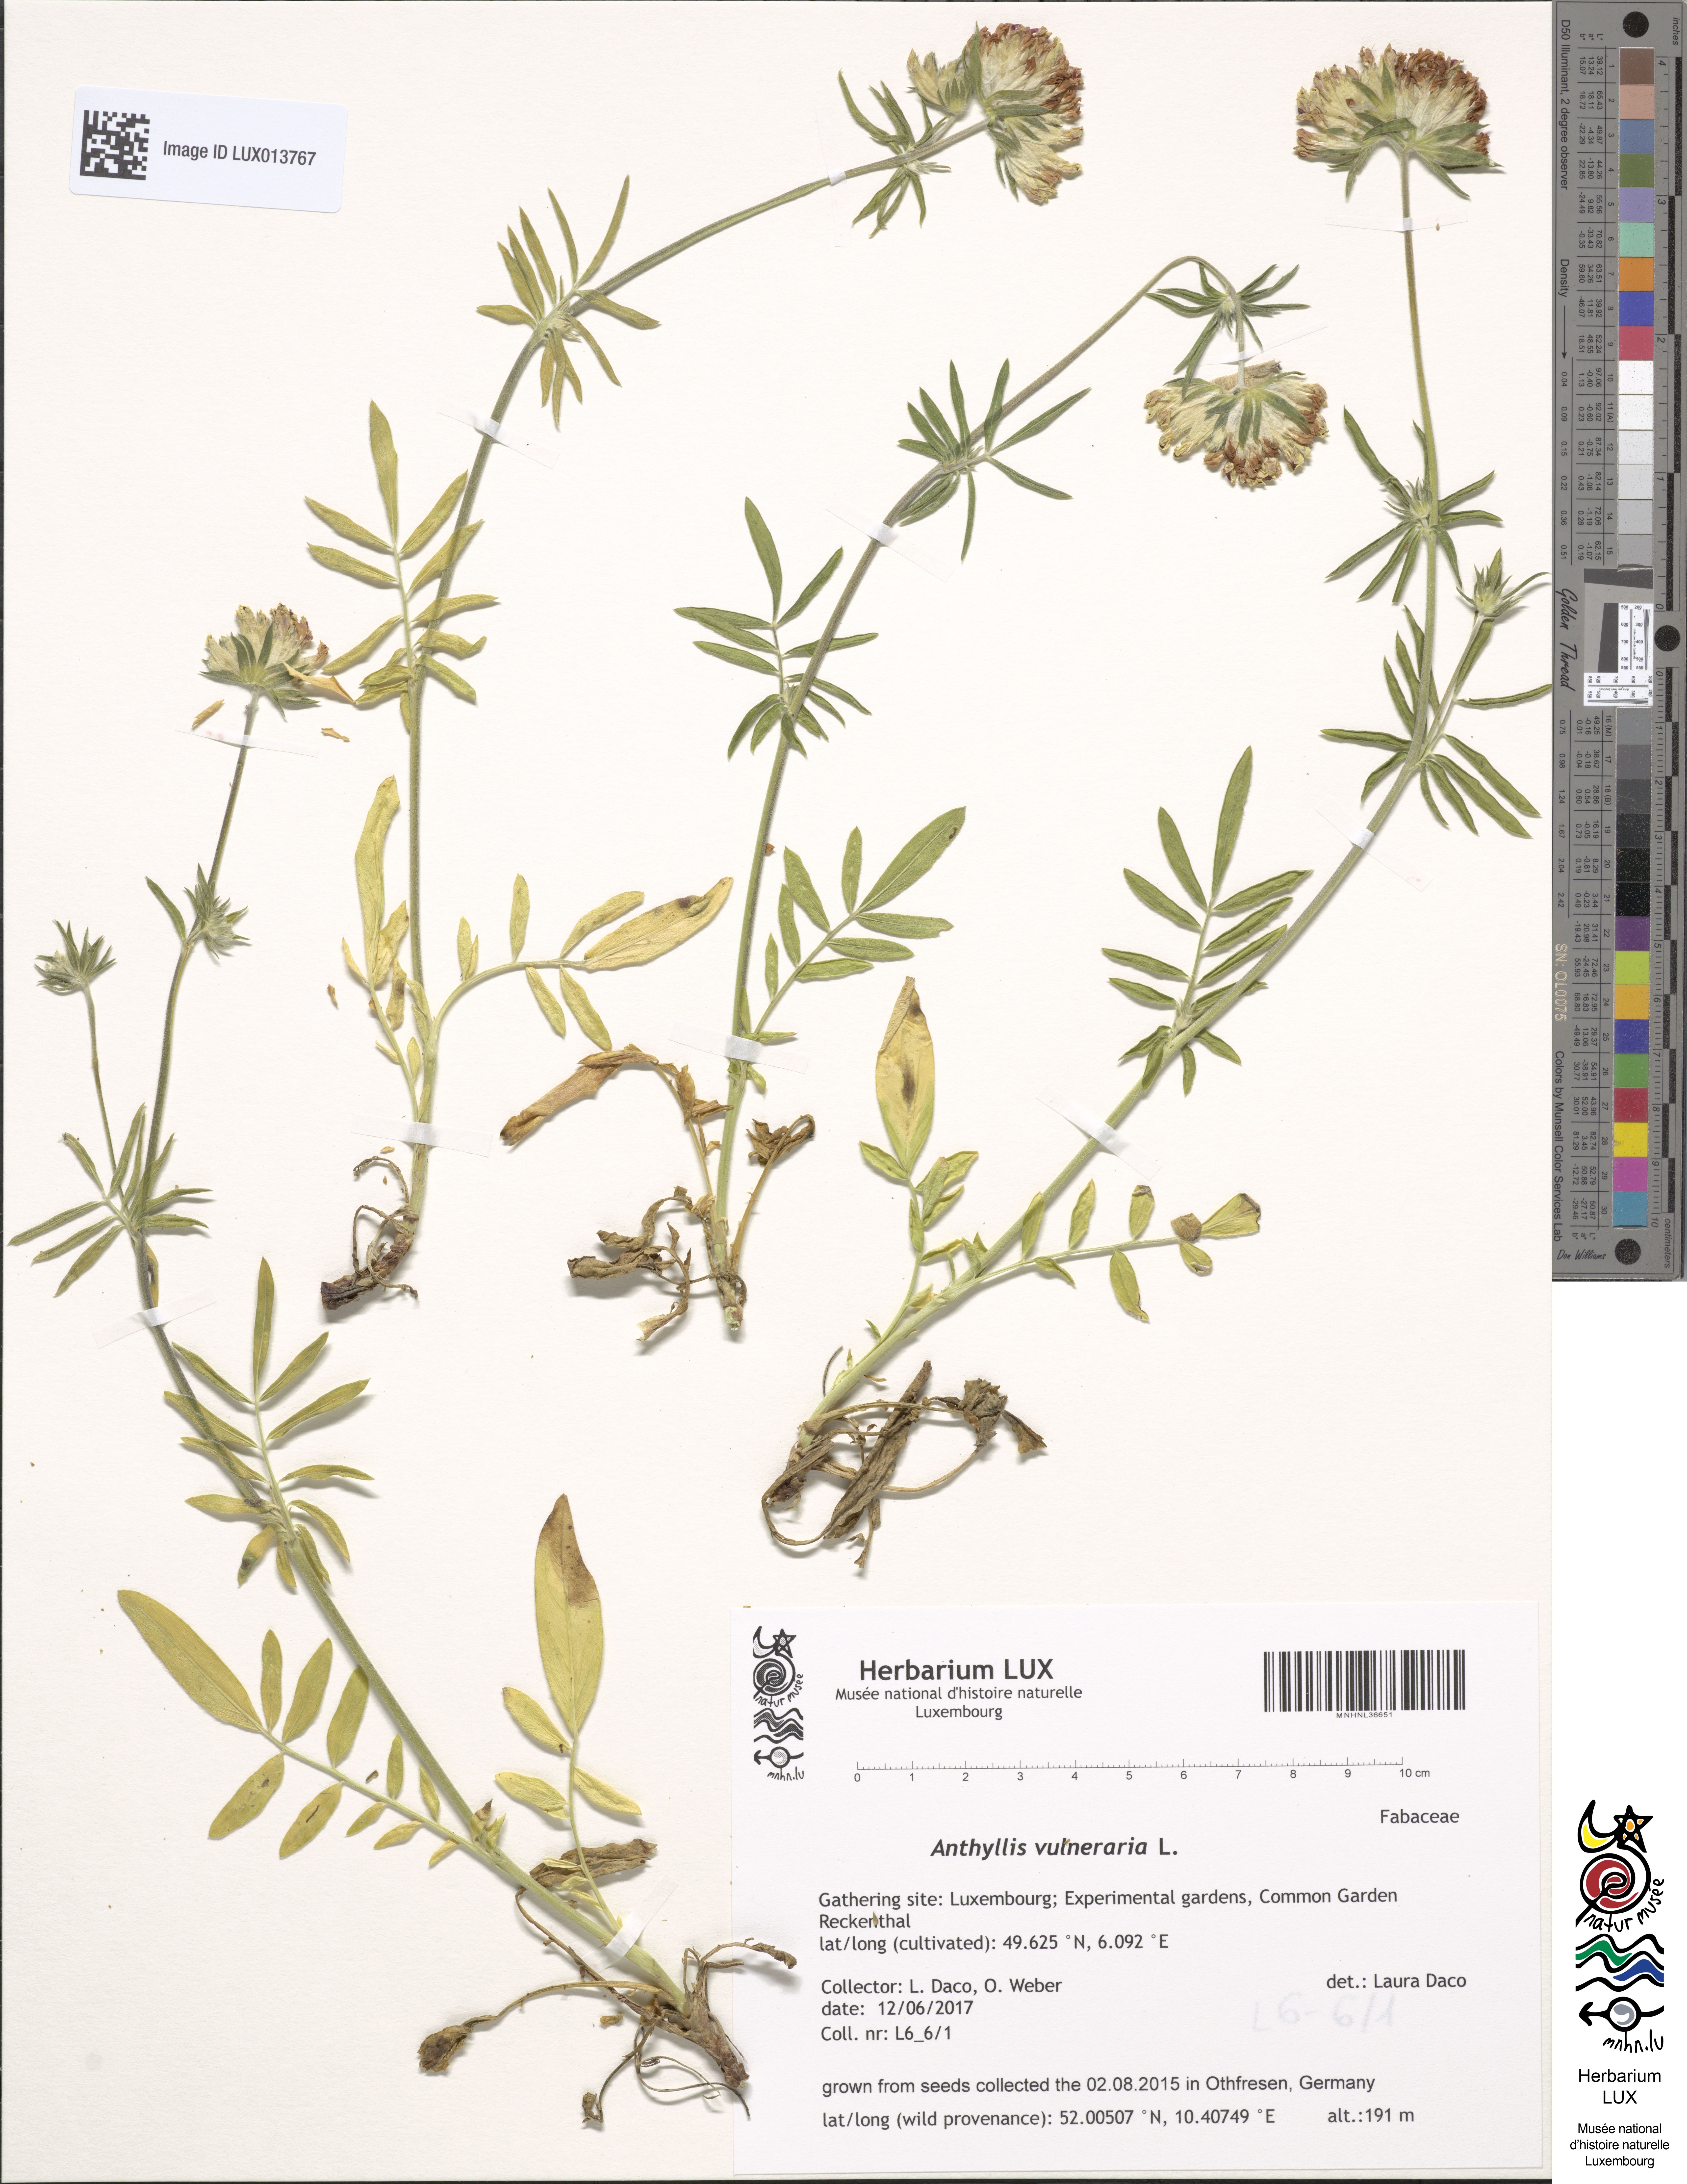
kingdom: Plantae
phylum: Tracheophyta
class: Magnoliopsida
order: Fabales
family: Fabaceae
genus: Anthyllis
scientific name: Anthyllis vulneraria
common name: Kidney vetch
